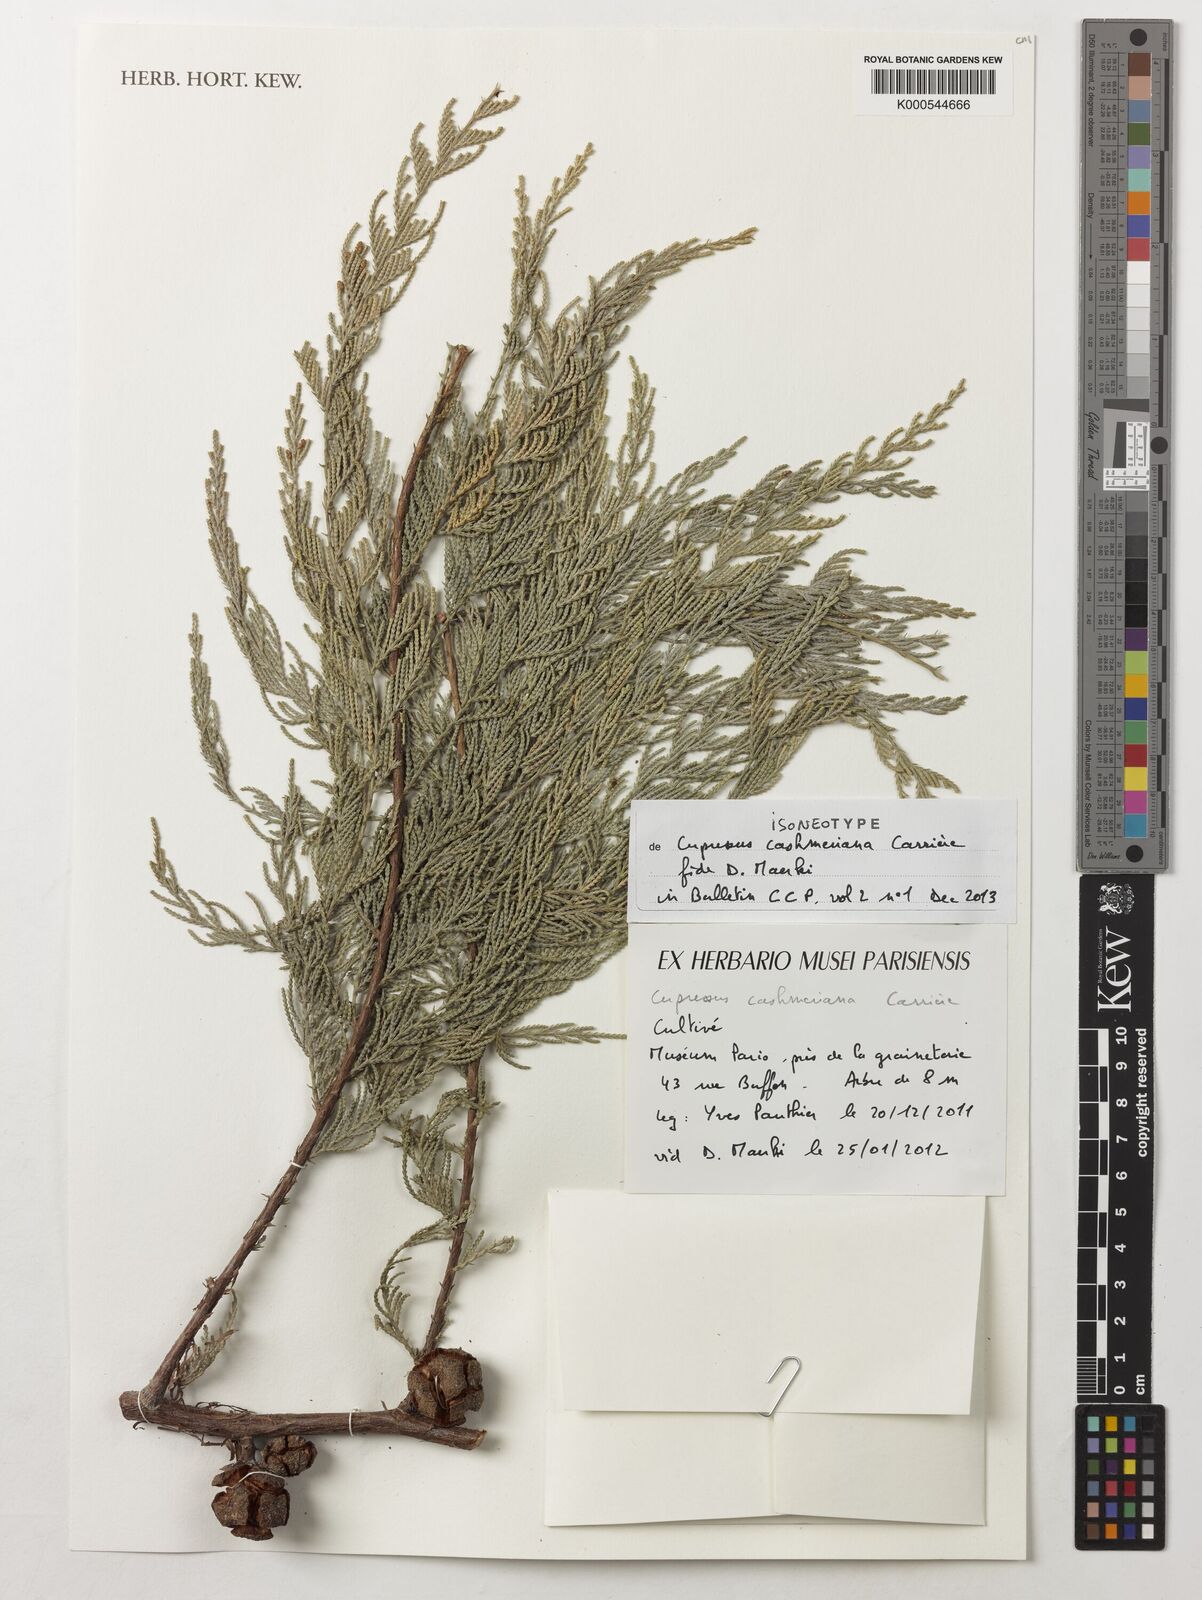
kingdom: Plantae
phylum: Tracheophyta
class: Pinopsida
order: Pinales
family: Cupressaceae
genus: Cupressus
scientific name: Cupressus cashmeriana
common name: Bhutan cypress
